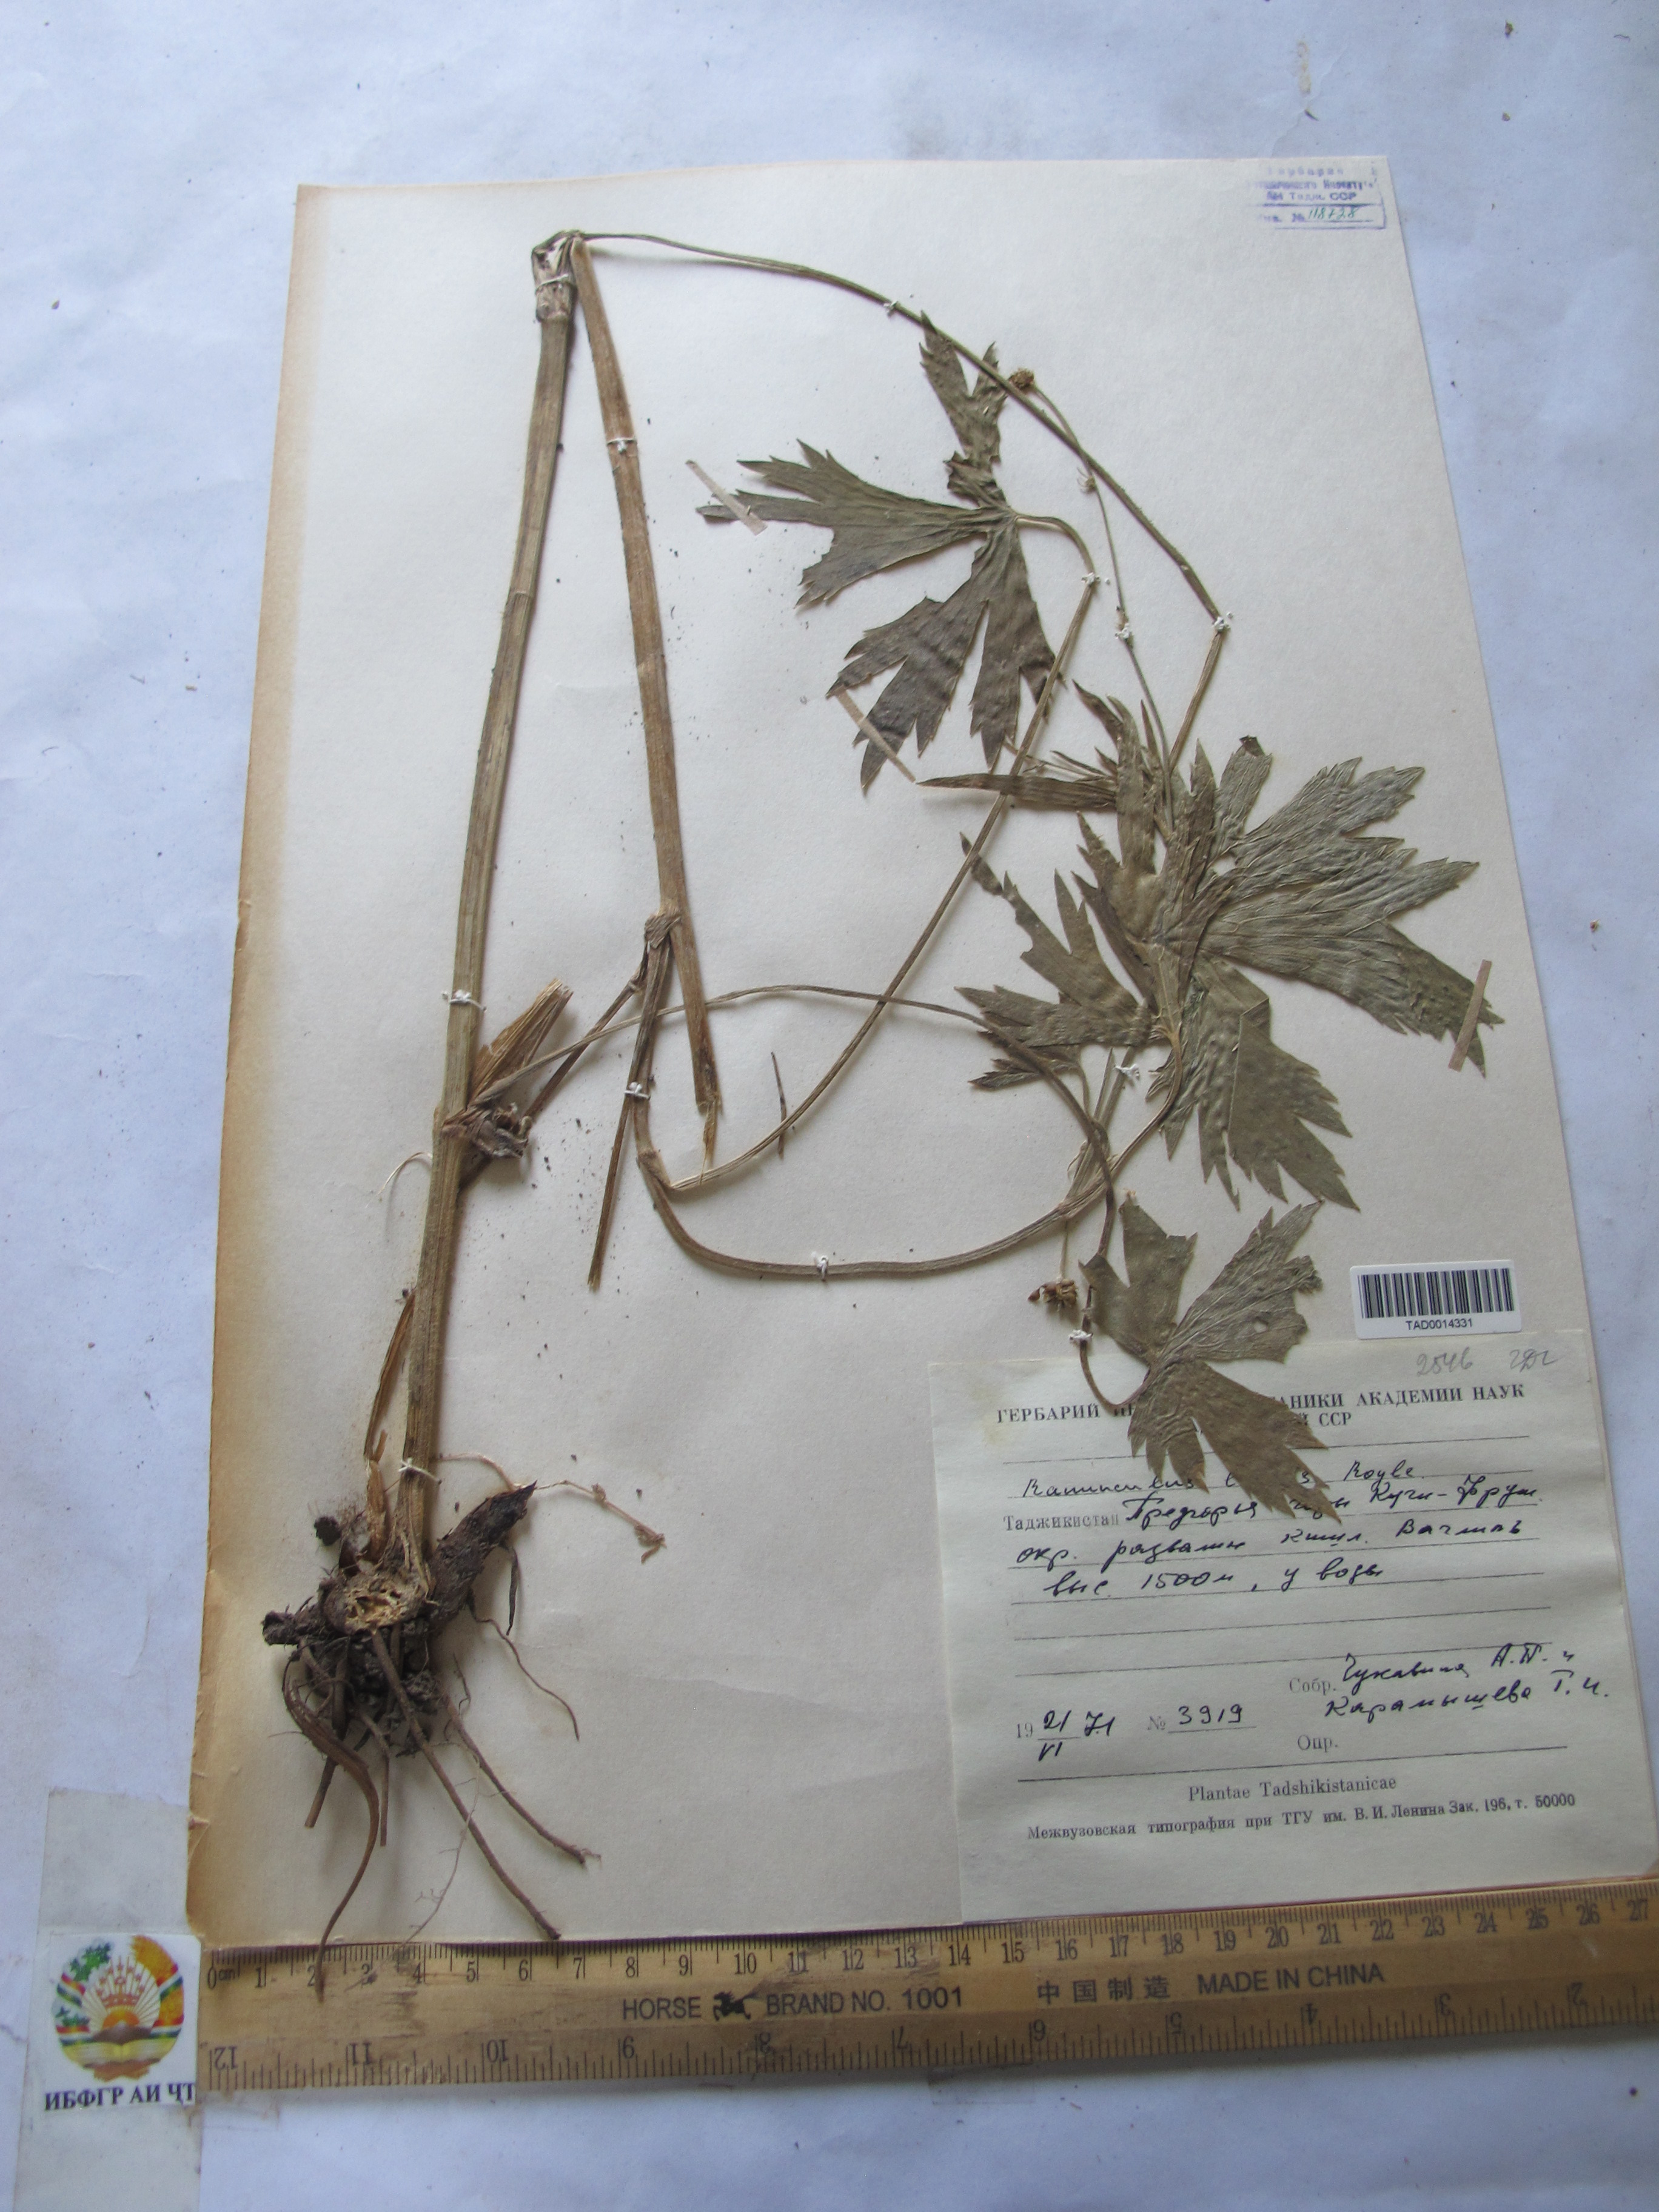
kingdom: Plantae
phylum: Tracheophyta
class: Magnoliopsida
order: Ranunculales
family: Ranunculaceae
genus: Ranunculus
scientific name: Ranunculus distans
